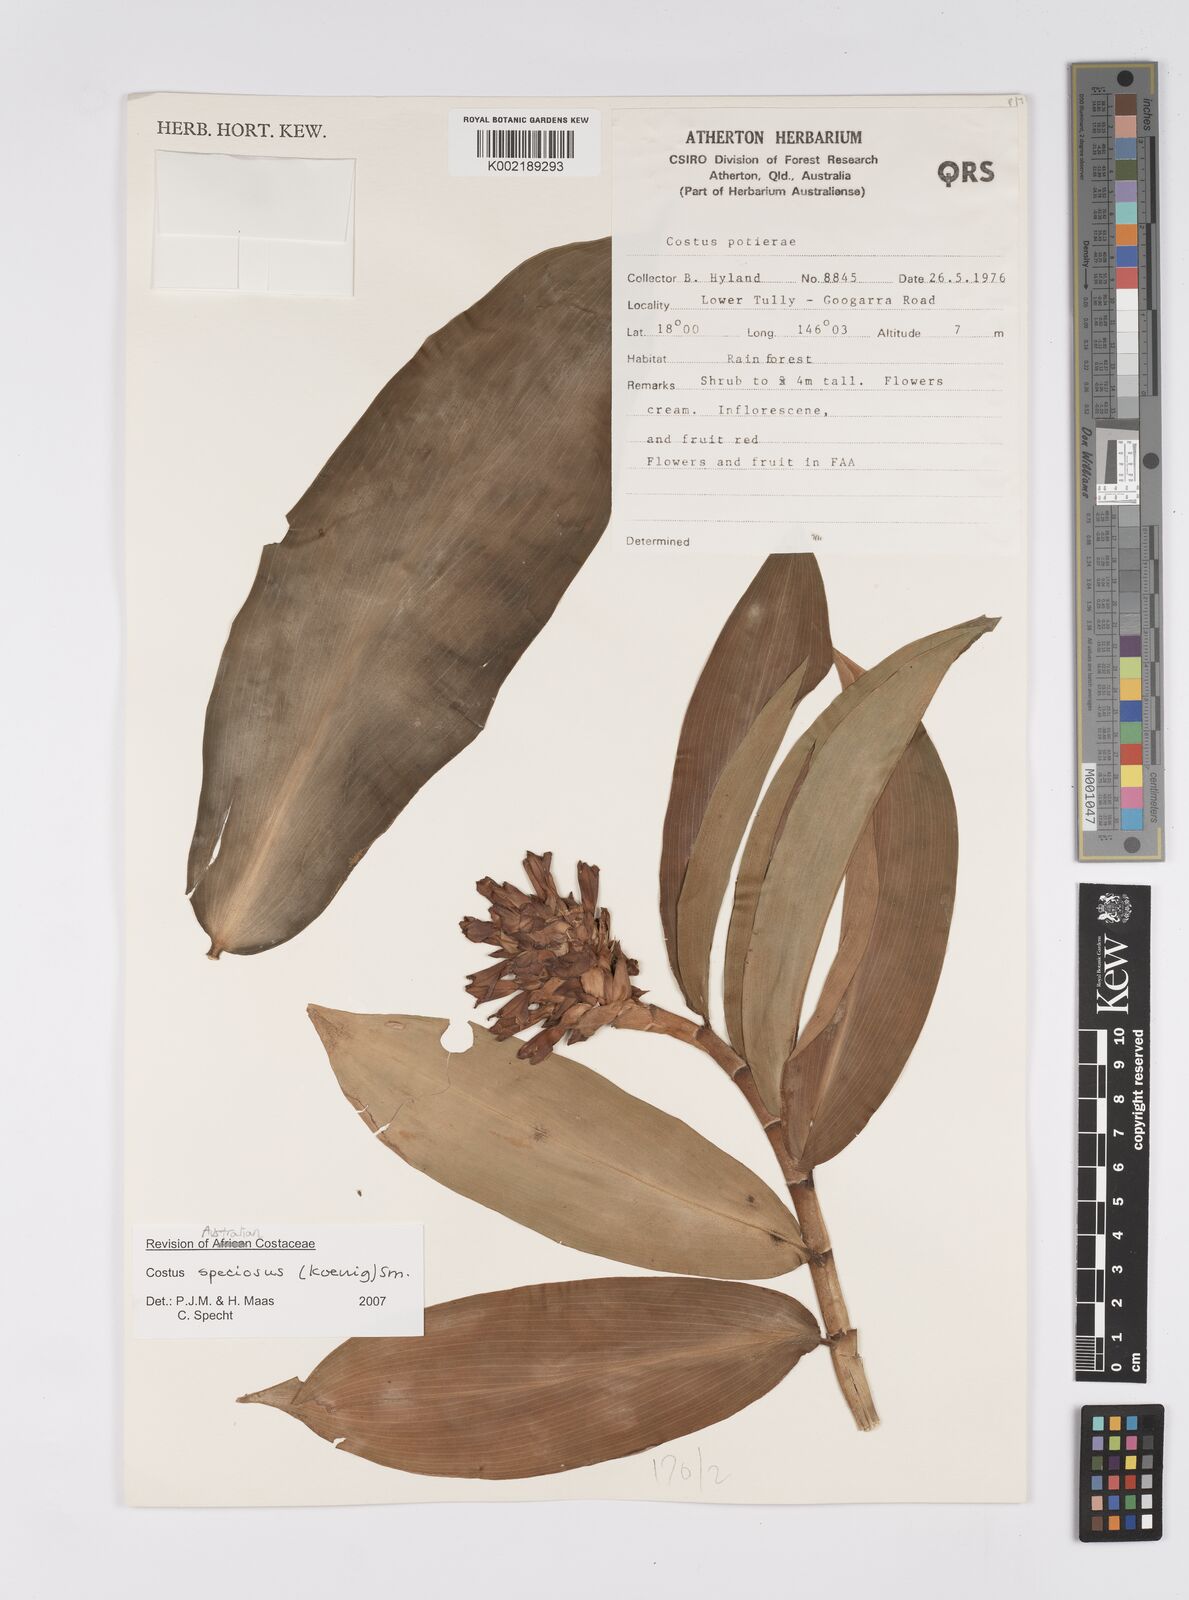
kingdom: Plantae
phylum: Tracheophyta
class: Liliopsida
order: Zingiberales
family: Costaceae
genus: Hellenia
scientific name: Hellenia speciosa
